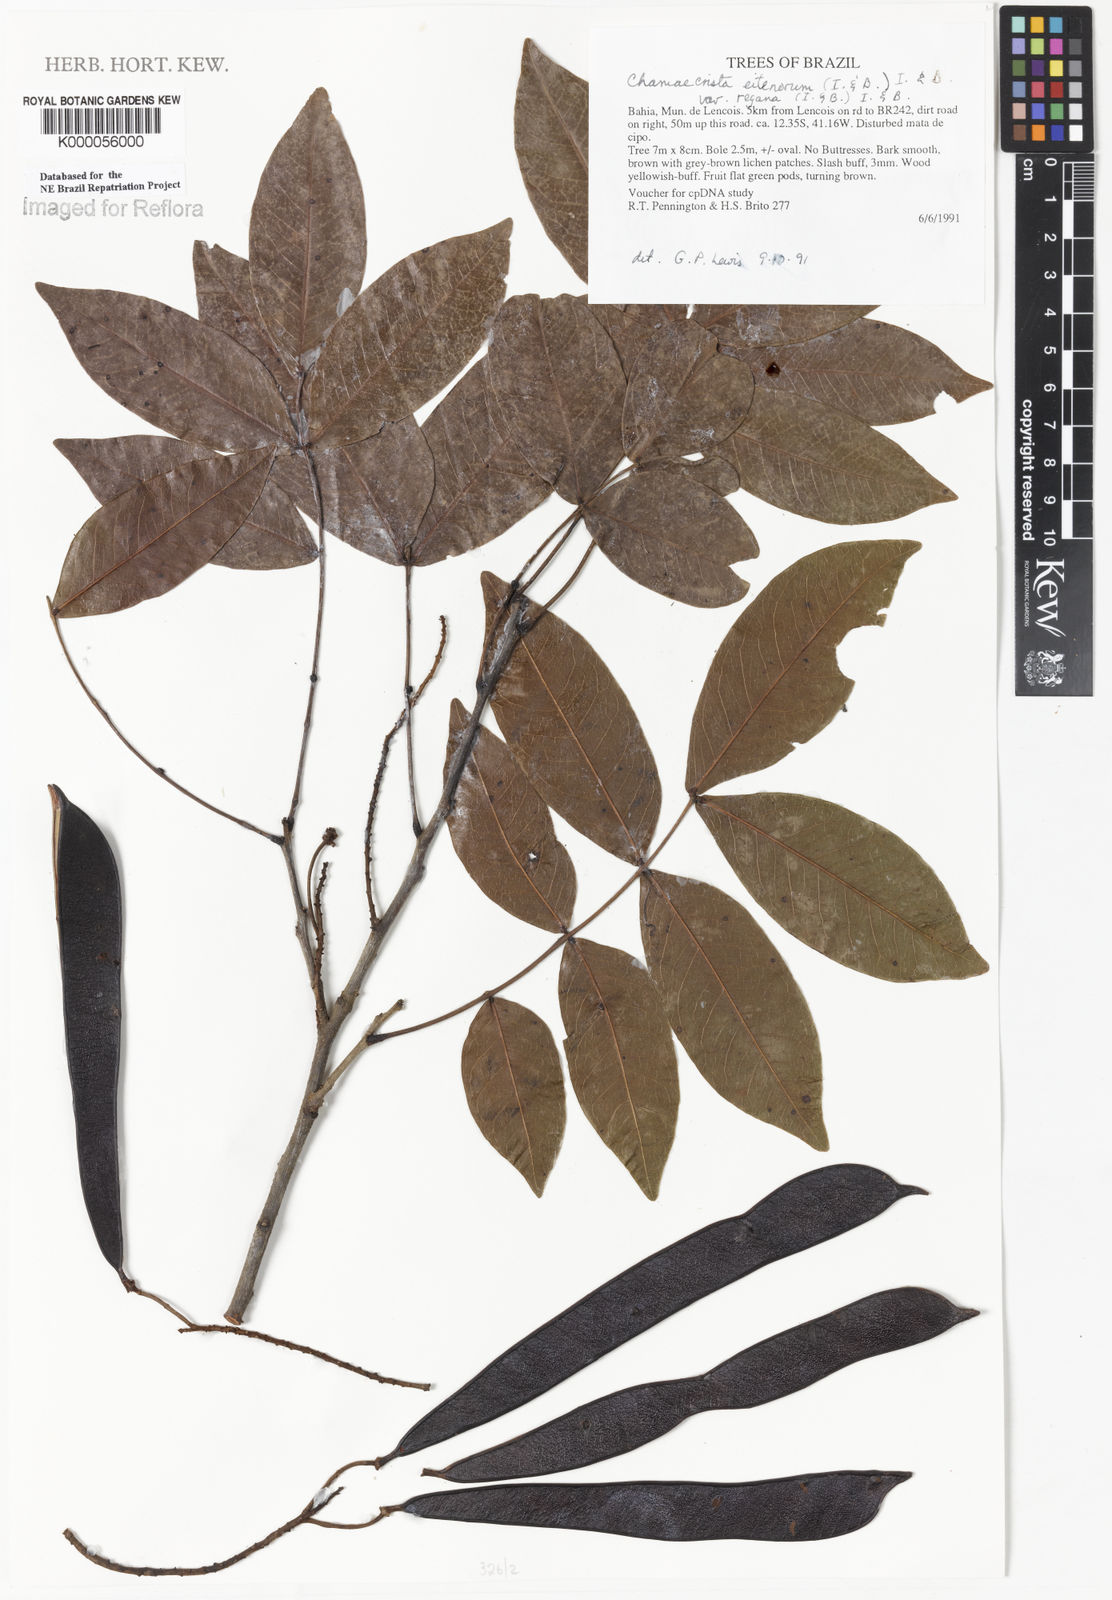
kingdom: Plantae
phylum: Tracheophyta
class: Magnoliopsida
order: Fabales
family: Fabaceae
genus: Chamaecrista
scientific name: Chamaecrista eitenorum
